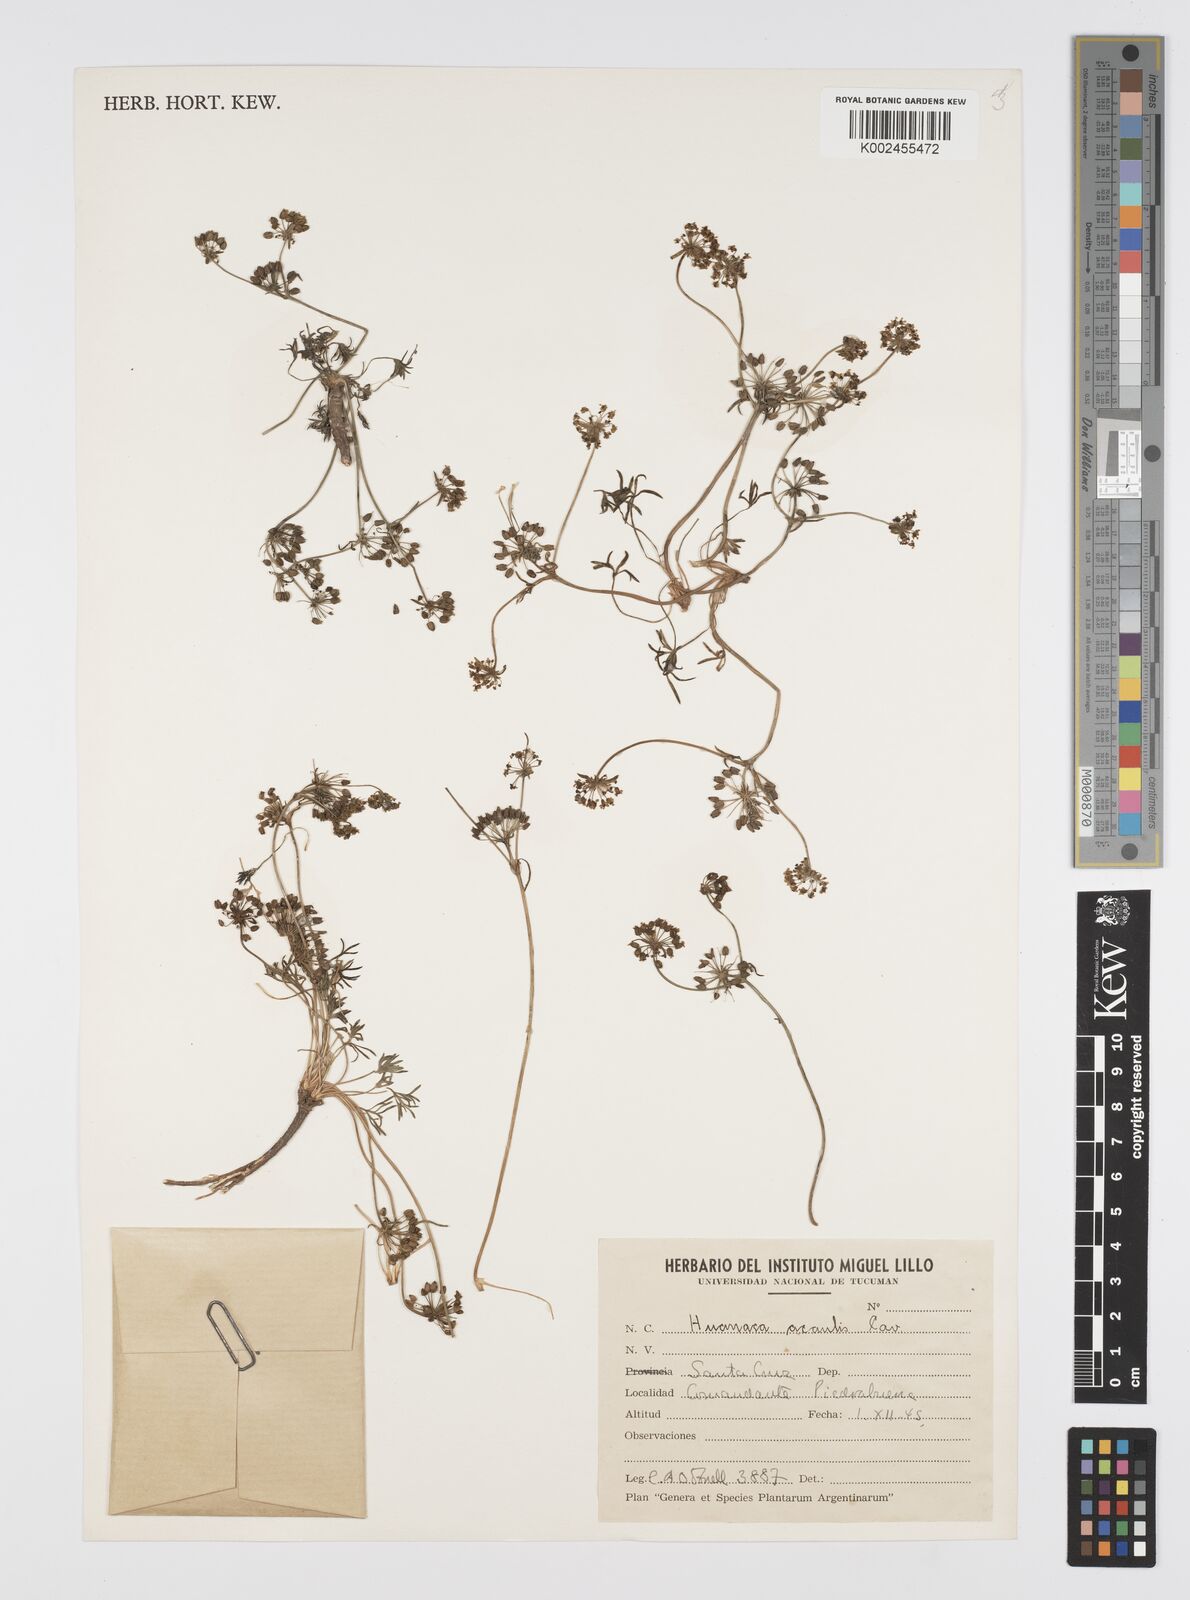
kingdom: Plantae
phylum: Tracheophyta
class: Magnoliopsida
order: Apiales
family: Apiaceae
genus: Azorella
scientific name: Azorella andina
